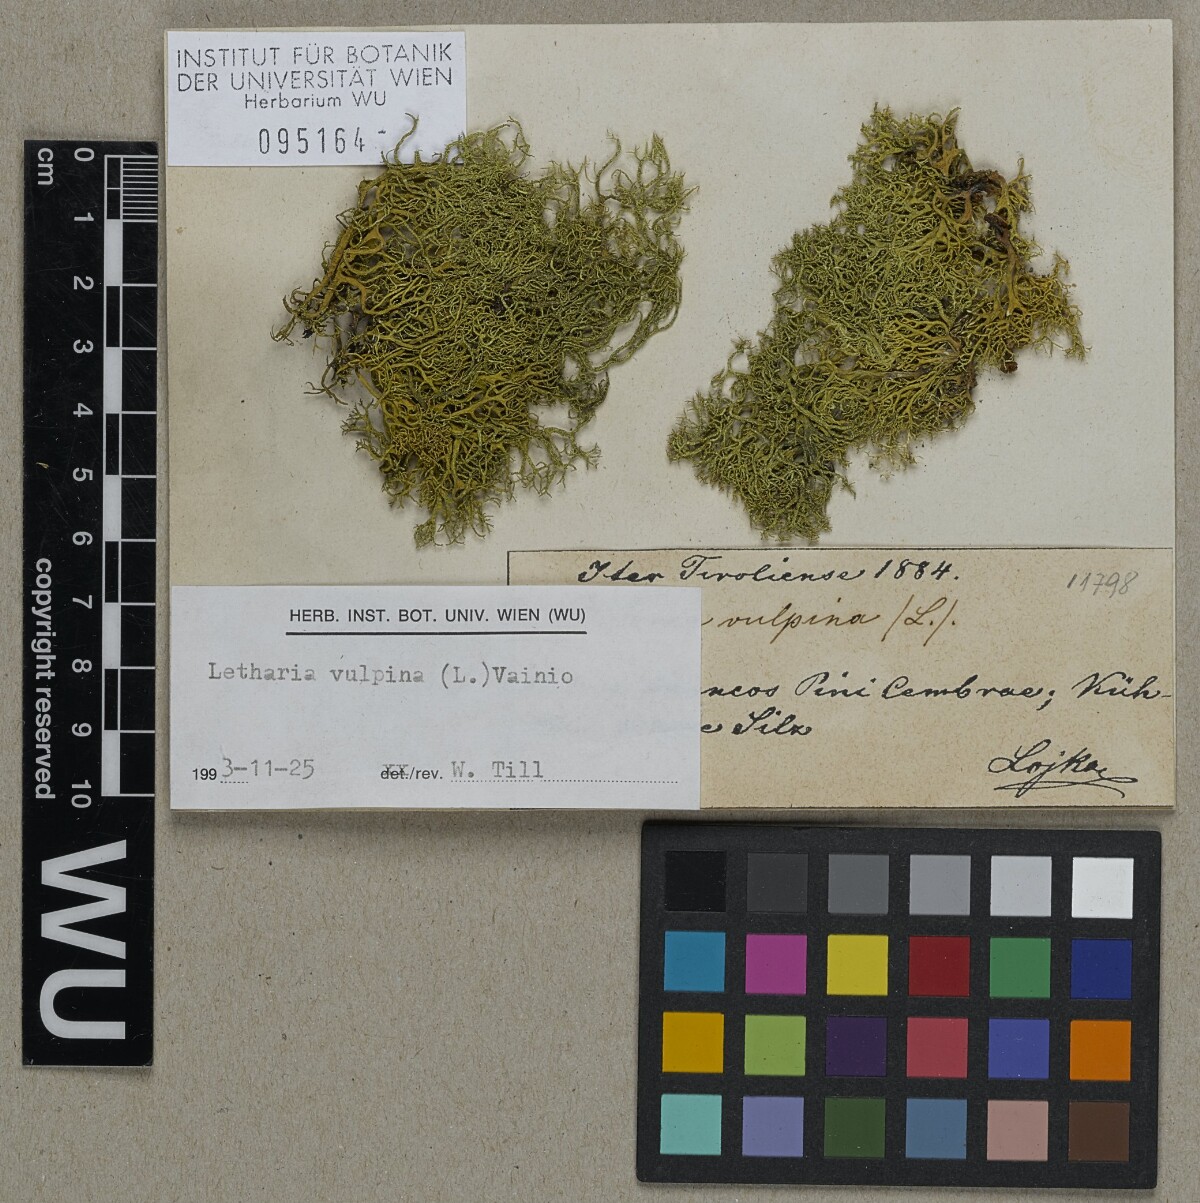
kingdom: Fungi
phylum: Ascomycota
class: Lecanoromycetes
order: Lecanorales
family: Parmeliaceae
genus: Letharia
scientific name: Letharia vulpina
